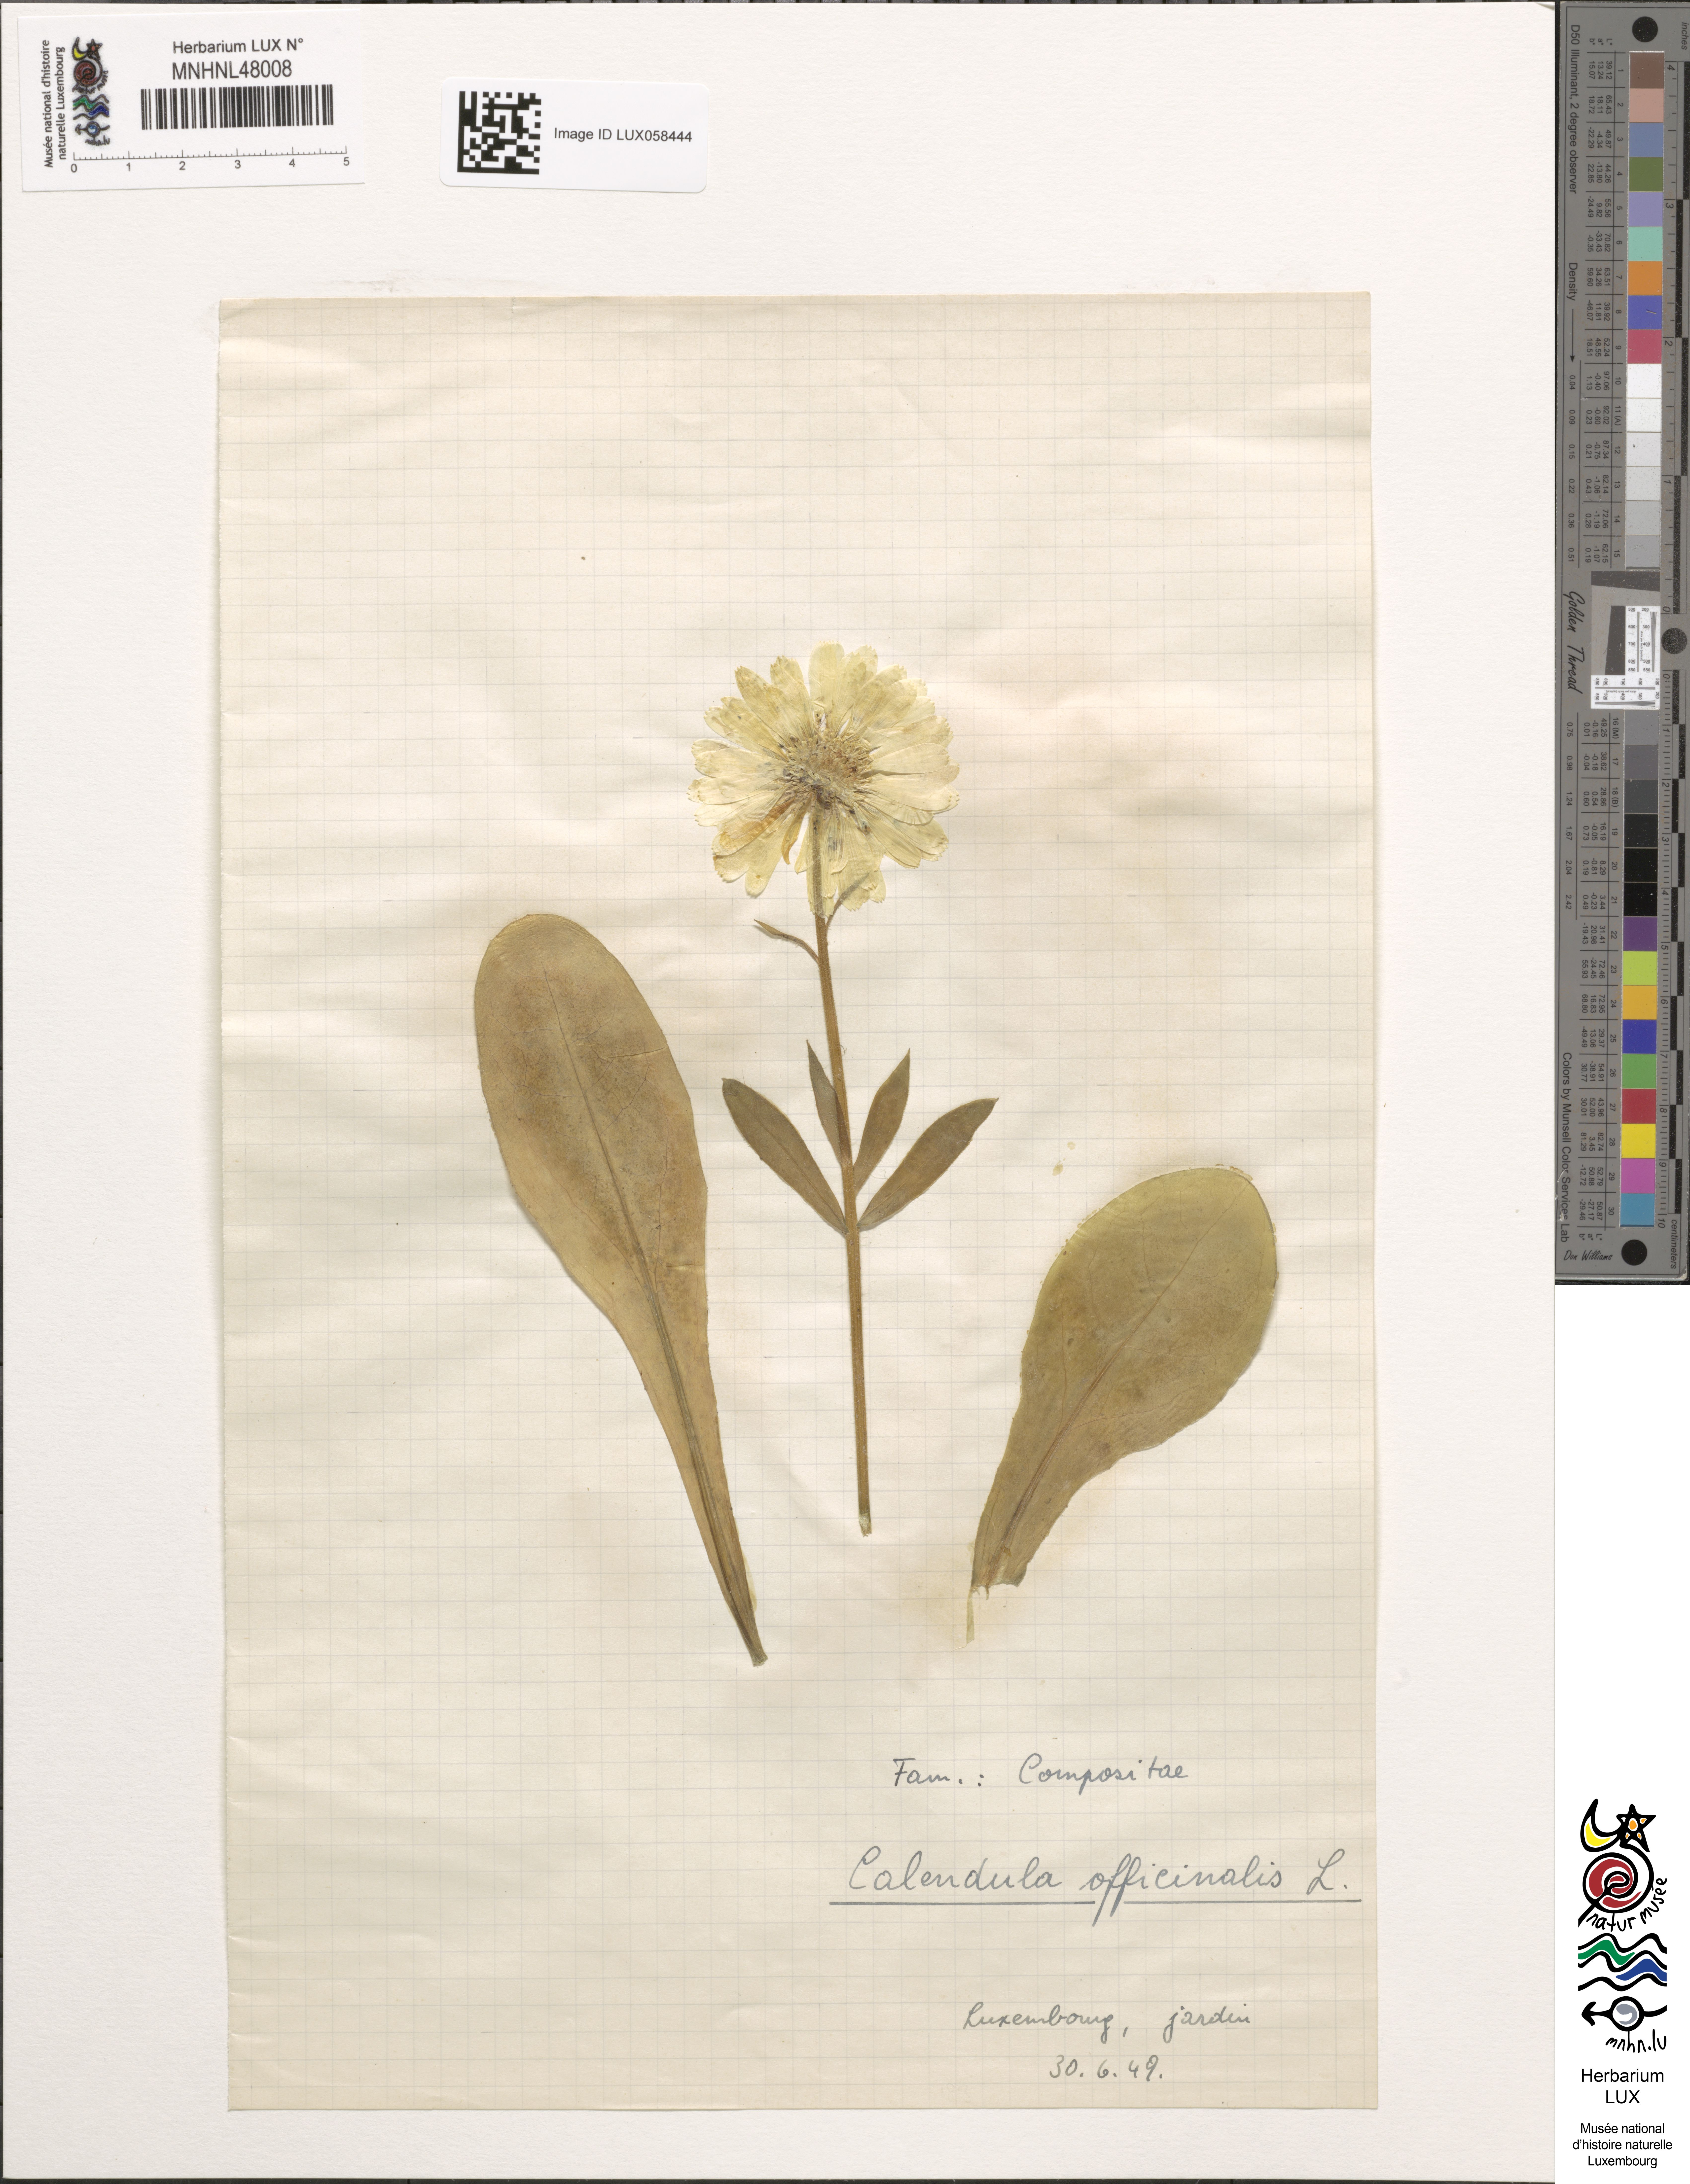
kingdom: Plantae
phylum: Tracheophyta
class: Magnoliopsida
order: Asterales
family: Asteraceae
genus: Calendula
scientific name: Calendula officinalis
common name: Pot marigold
